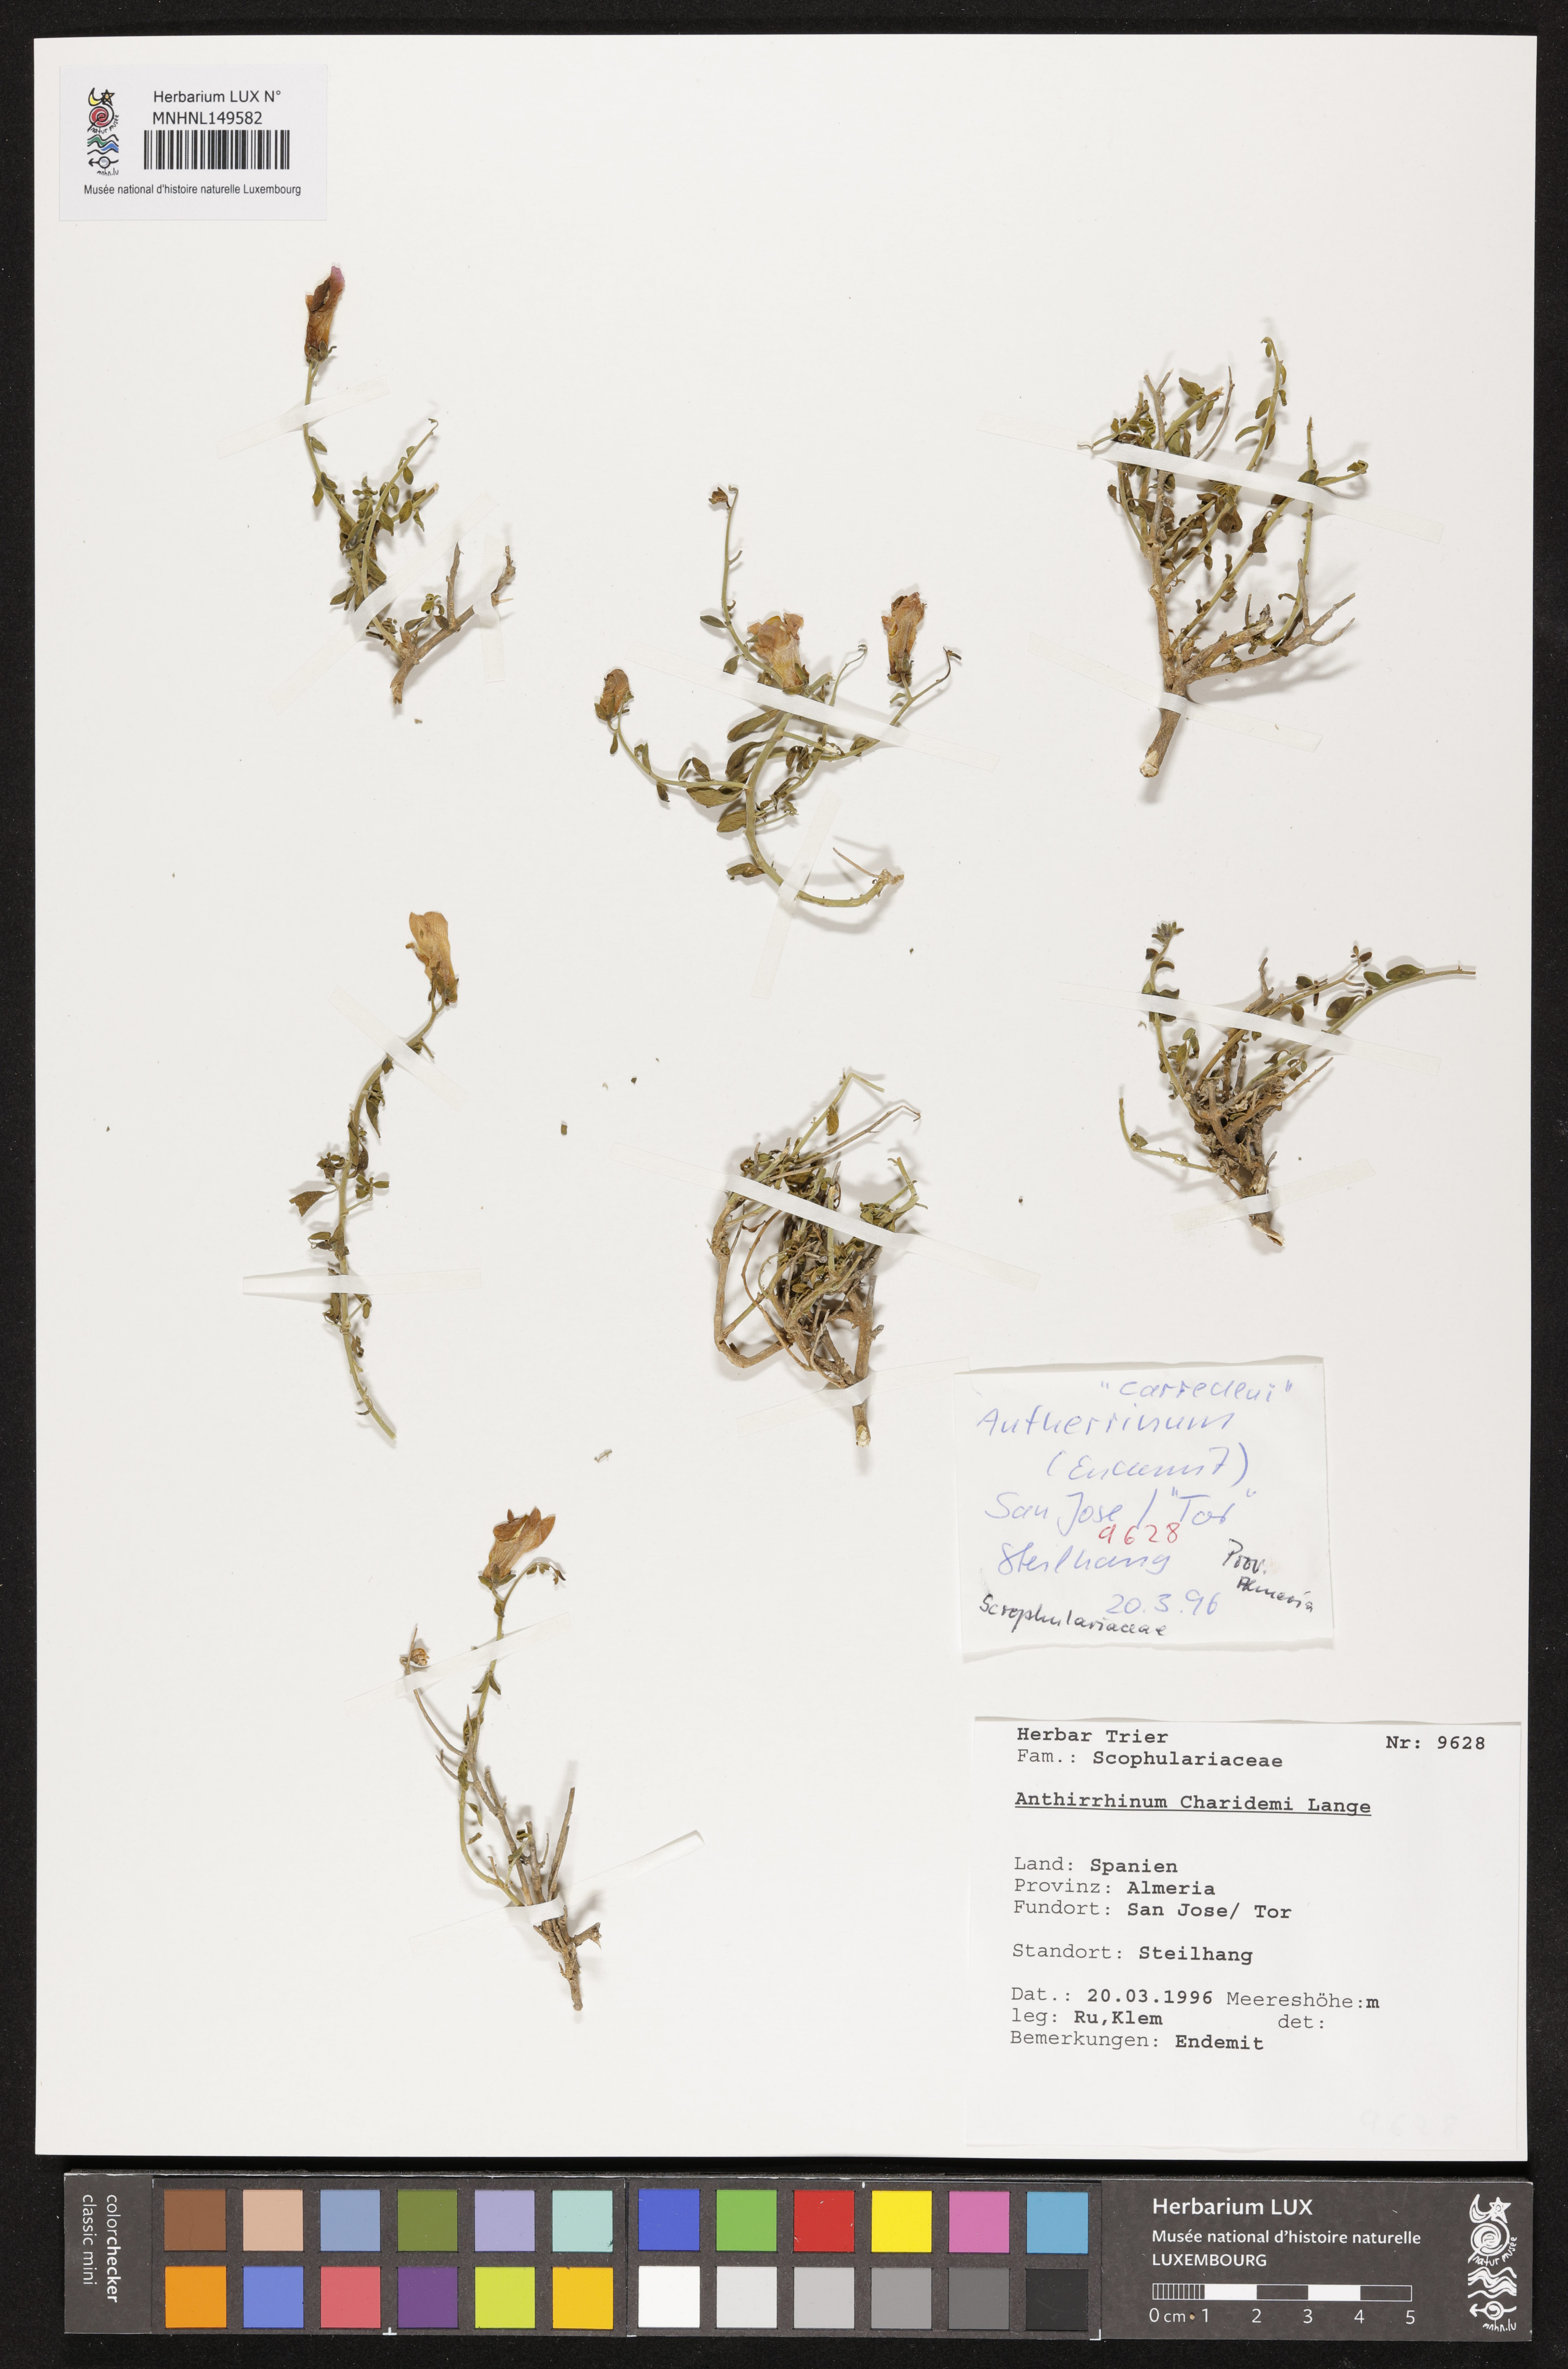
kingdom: Plantae
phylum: Tracheophyta
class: Magnoliopsida
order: Lamiales
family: Plantaginaceae
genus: Antirrhinum
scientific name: Antirrhinum charidemi
